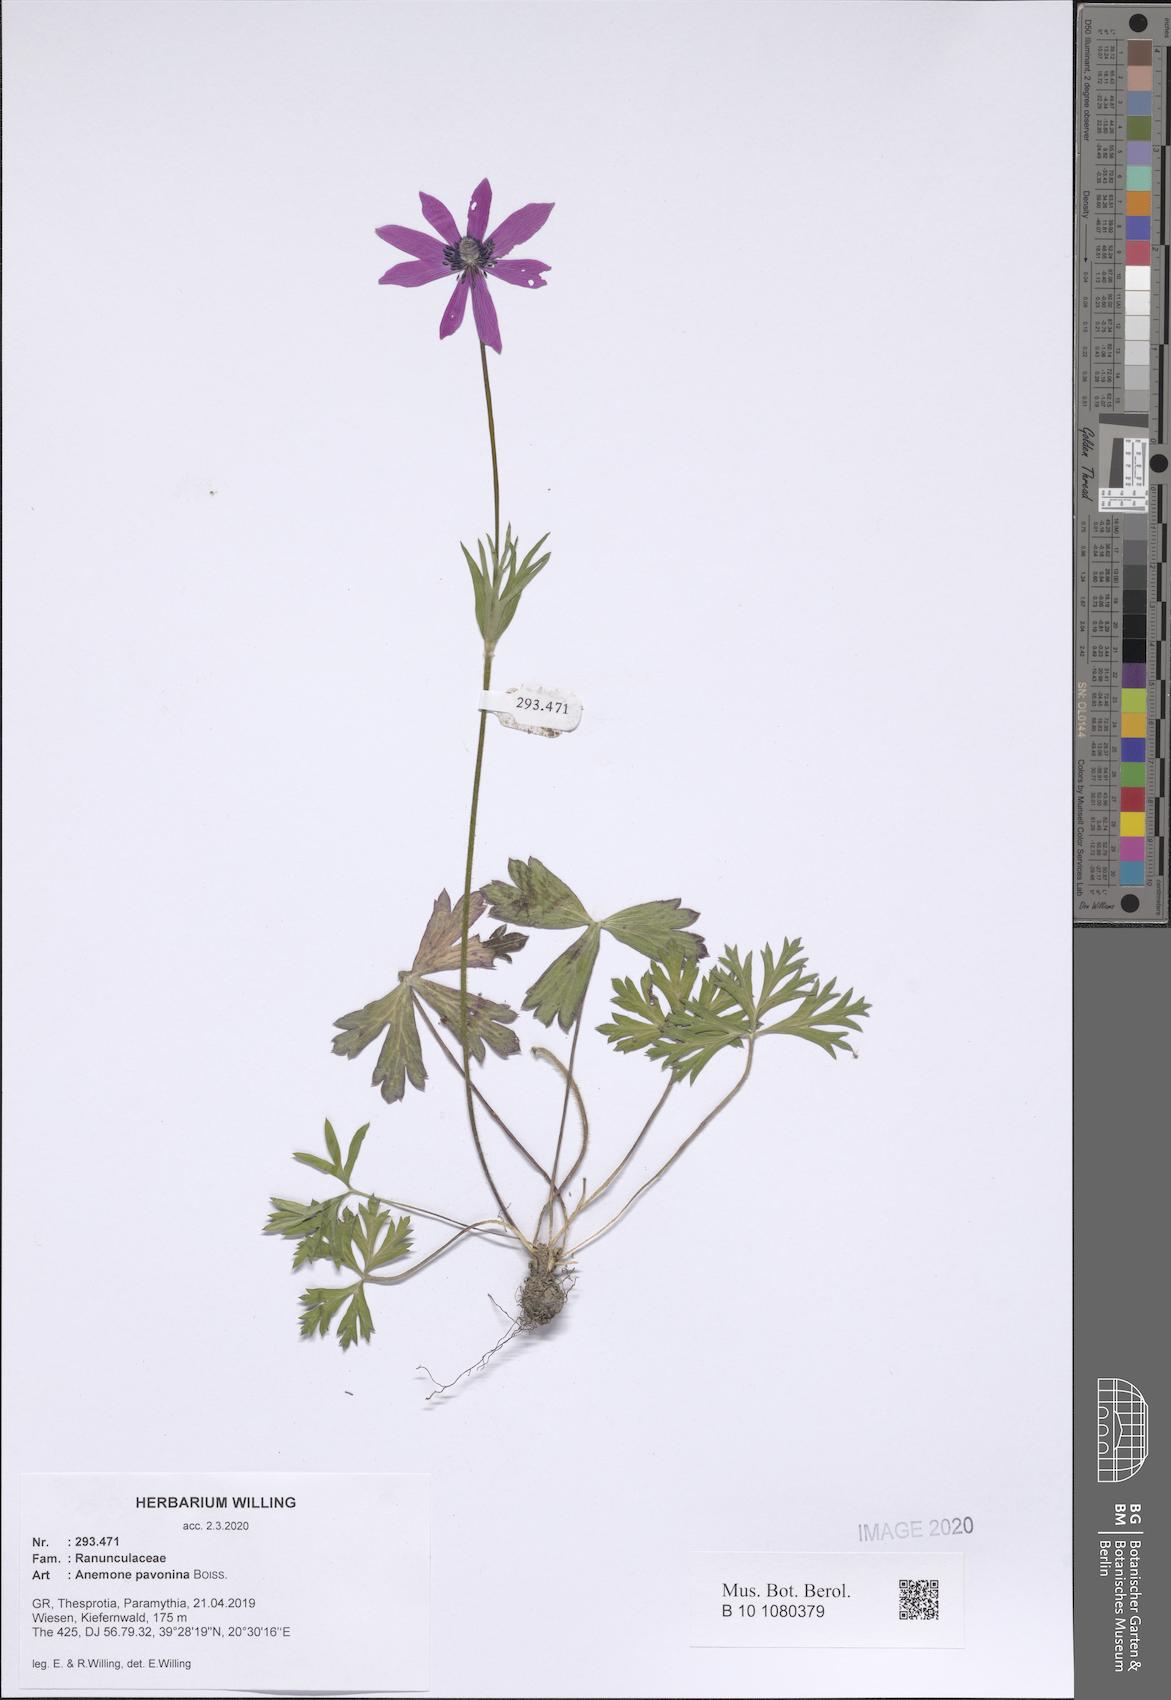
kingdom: Plantae
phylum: Tracheophyta
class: Magnoliopsida
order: Ranunculales
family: Ranunculaceae
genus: Anemone
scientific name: Anemone pavonina
